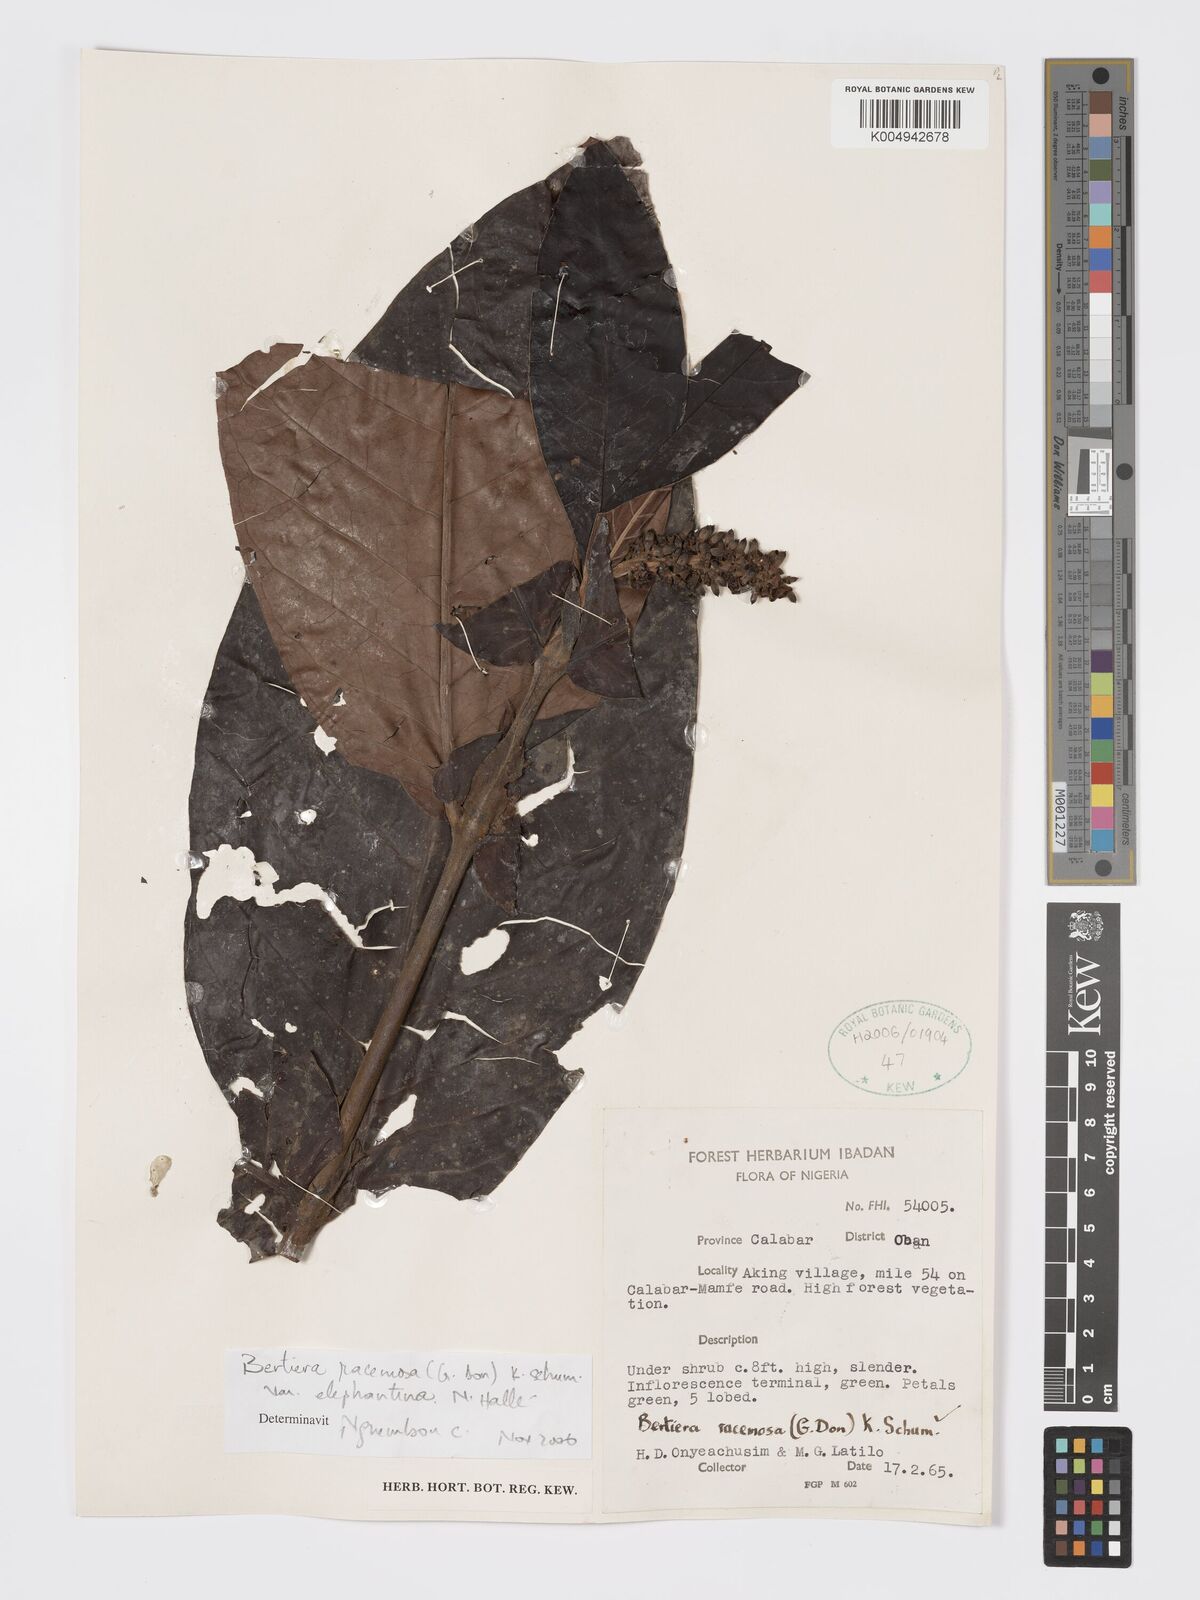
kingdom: Plantae
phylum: Tracheophyta
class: Magnoliopsida
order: Gentianales
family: Rubiaceae
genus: Bertiera
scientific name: Bertiera racemosa
